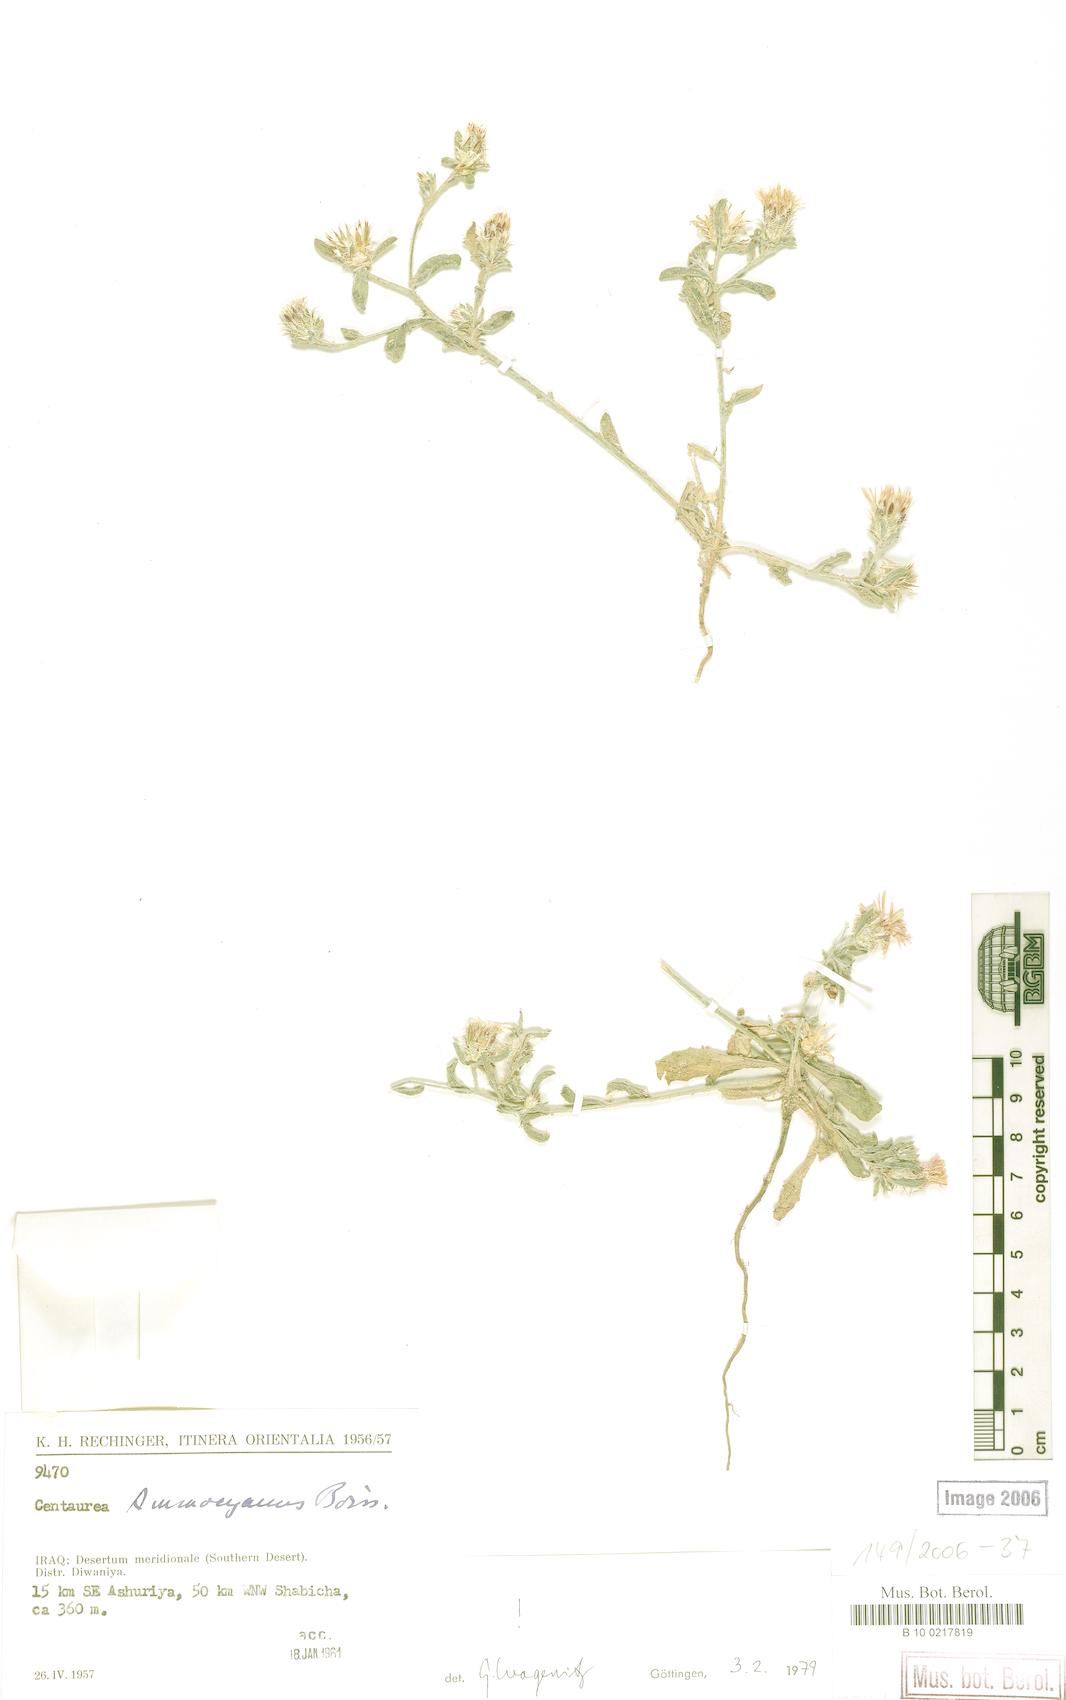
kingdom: Plantae
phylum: Tracheophyta
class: Magnoliopsida
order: Asterales
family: Asteraceae
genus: Centaurea
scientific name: Centaurea ammocyanus
